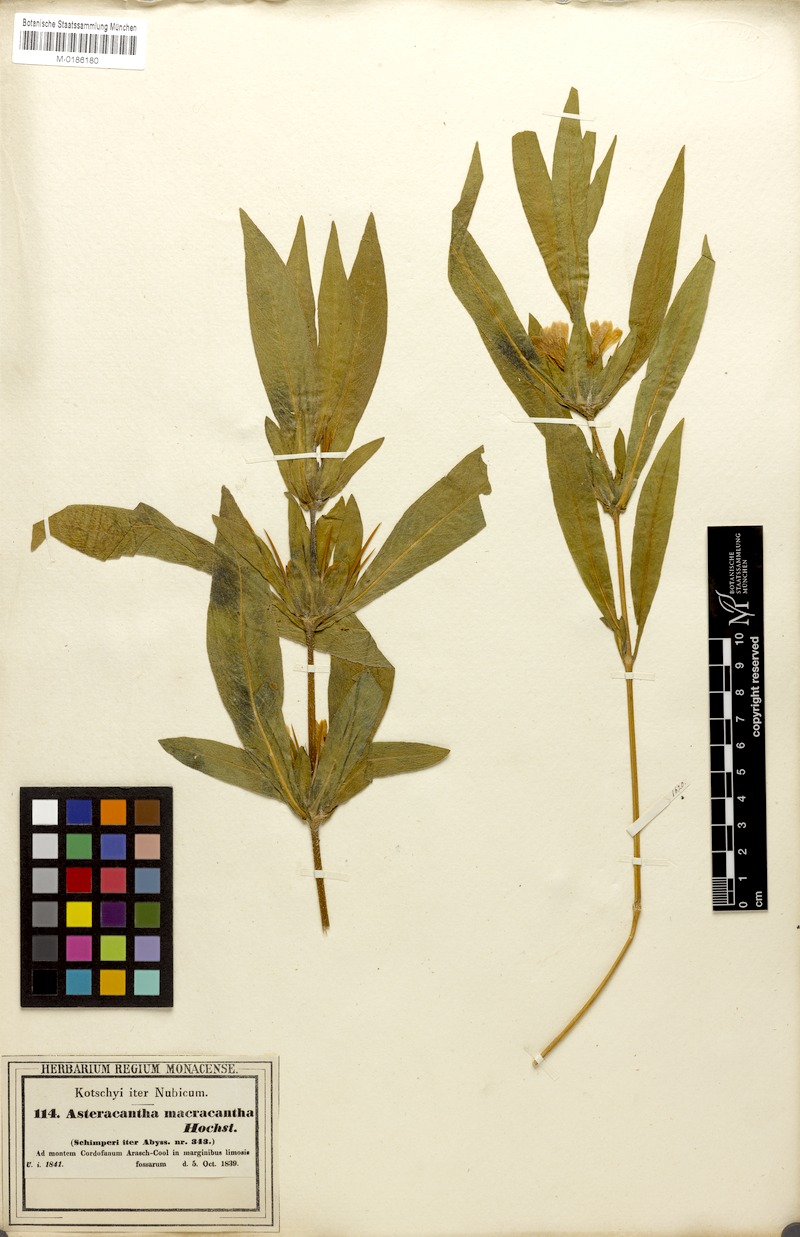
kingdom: Plantae
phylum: Tracheophyta
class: Magnoliopsida
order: Lamiales
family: Acanthaceae
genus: Hygrophila
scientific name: Hygrophila auriculata
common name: Hygrophila
